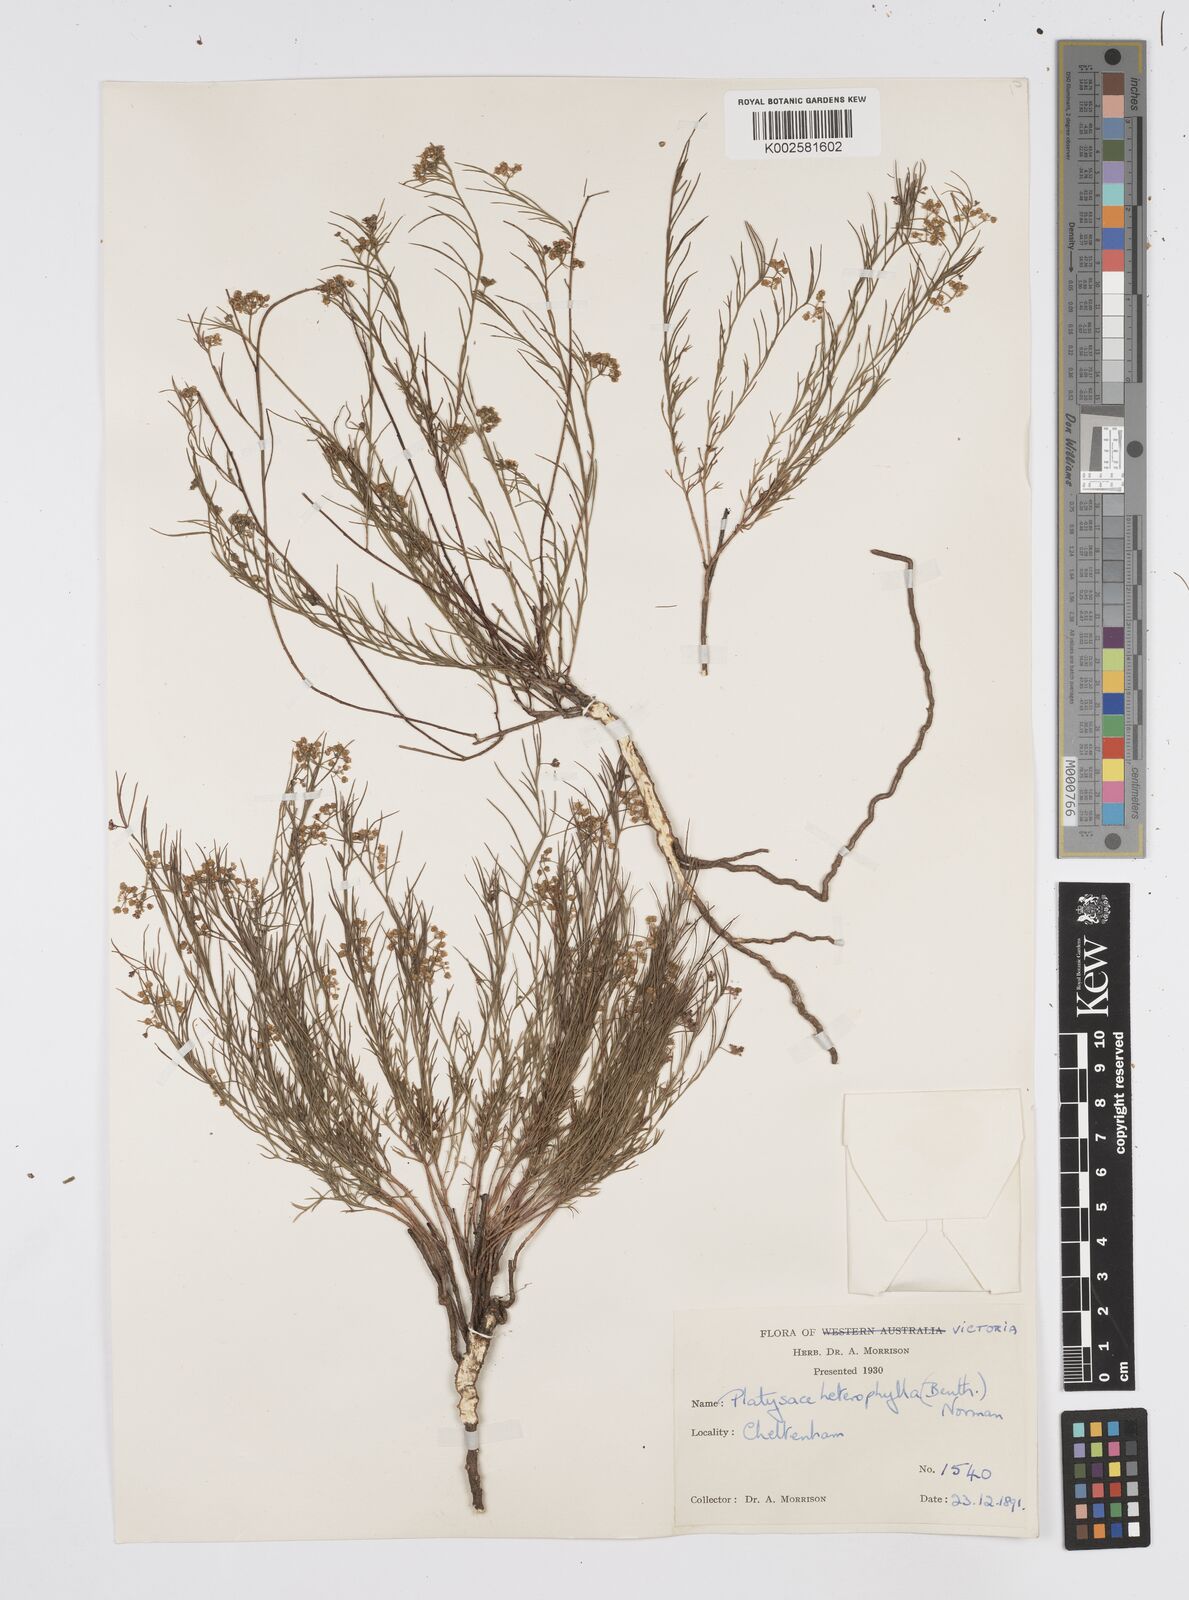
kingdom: Plantae
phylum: Tracheophyta
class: Magnoliopsida
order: Apiales
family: Apiaceae
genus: Platysace
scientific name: Platysace heterophylla
